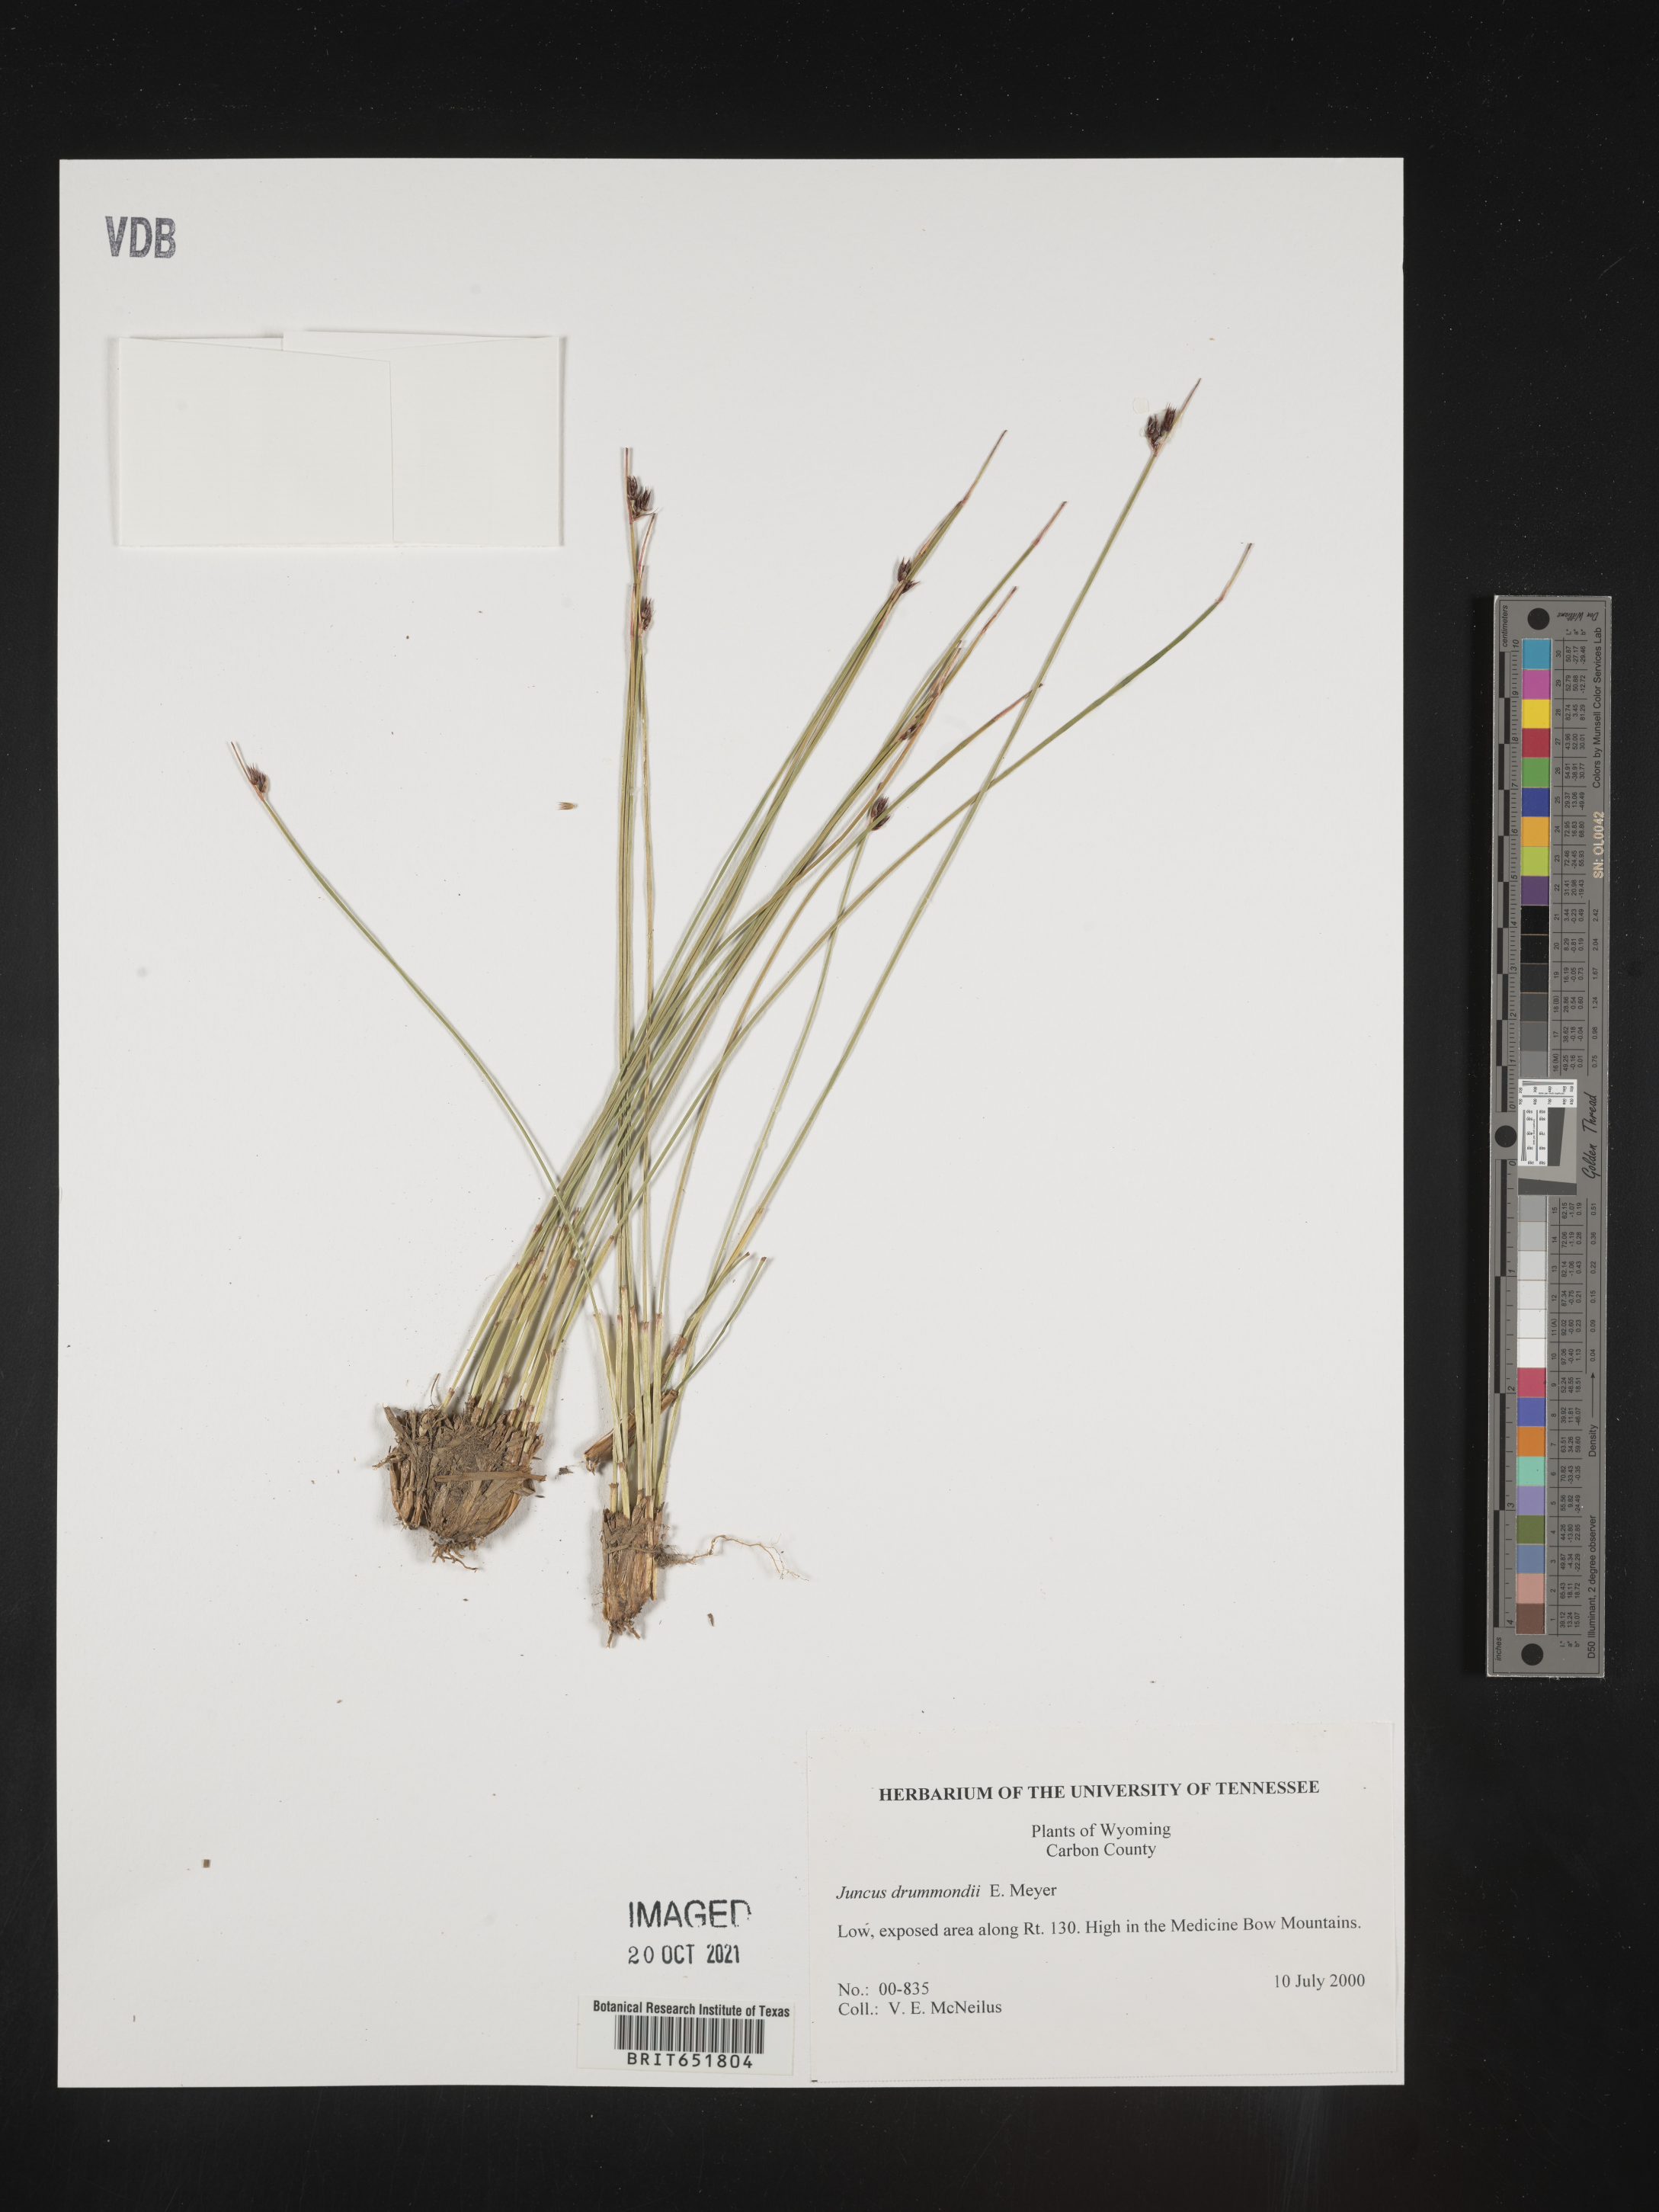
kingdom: Plantae
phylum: Tracheophyta
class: Liliopsida
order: Poales
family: Juncaceae
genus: Juncus
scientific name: Juncus drummondii
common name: Drummond's rush
